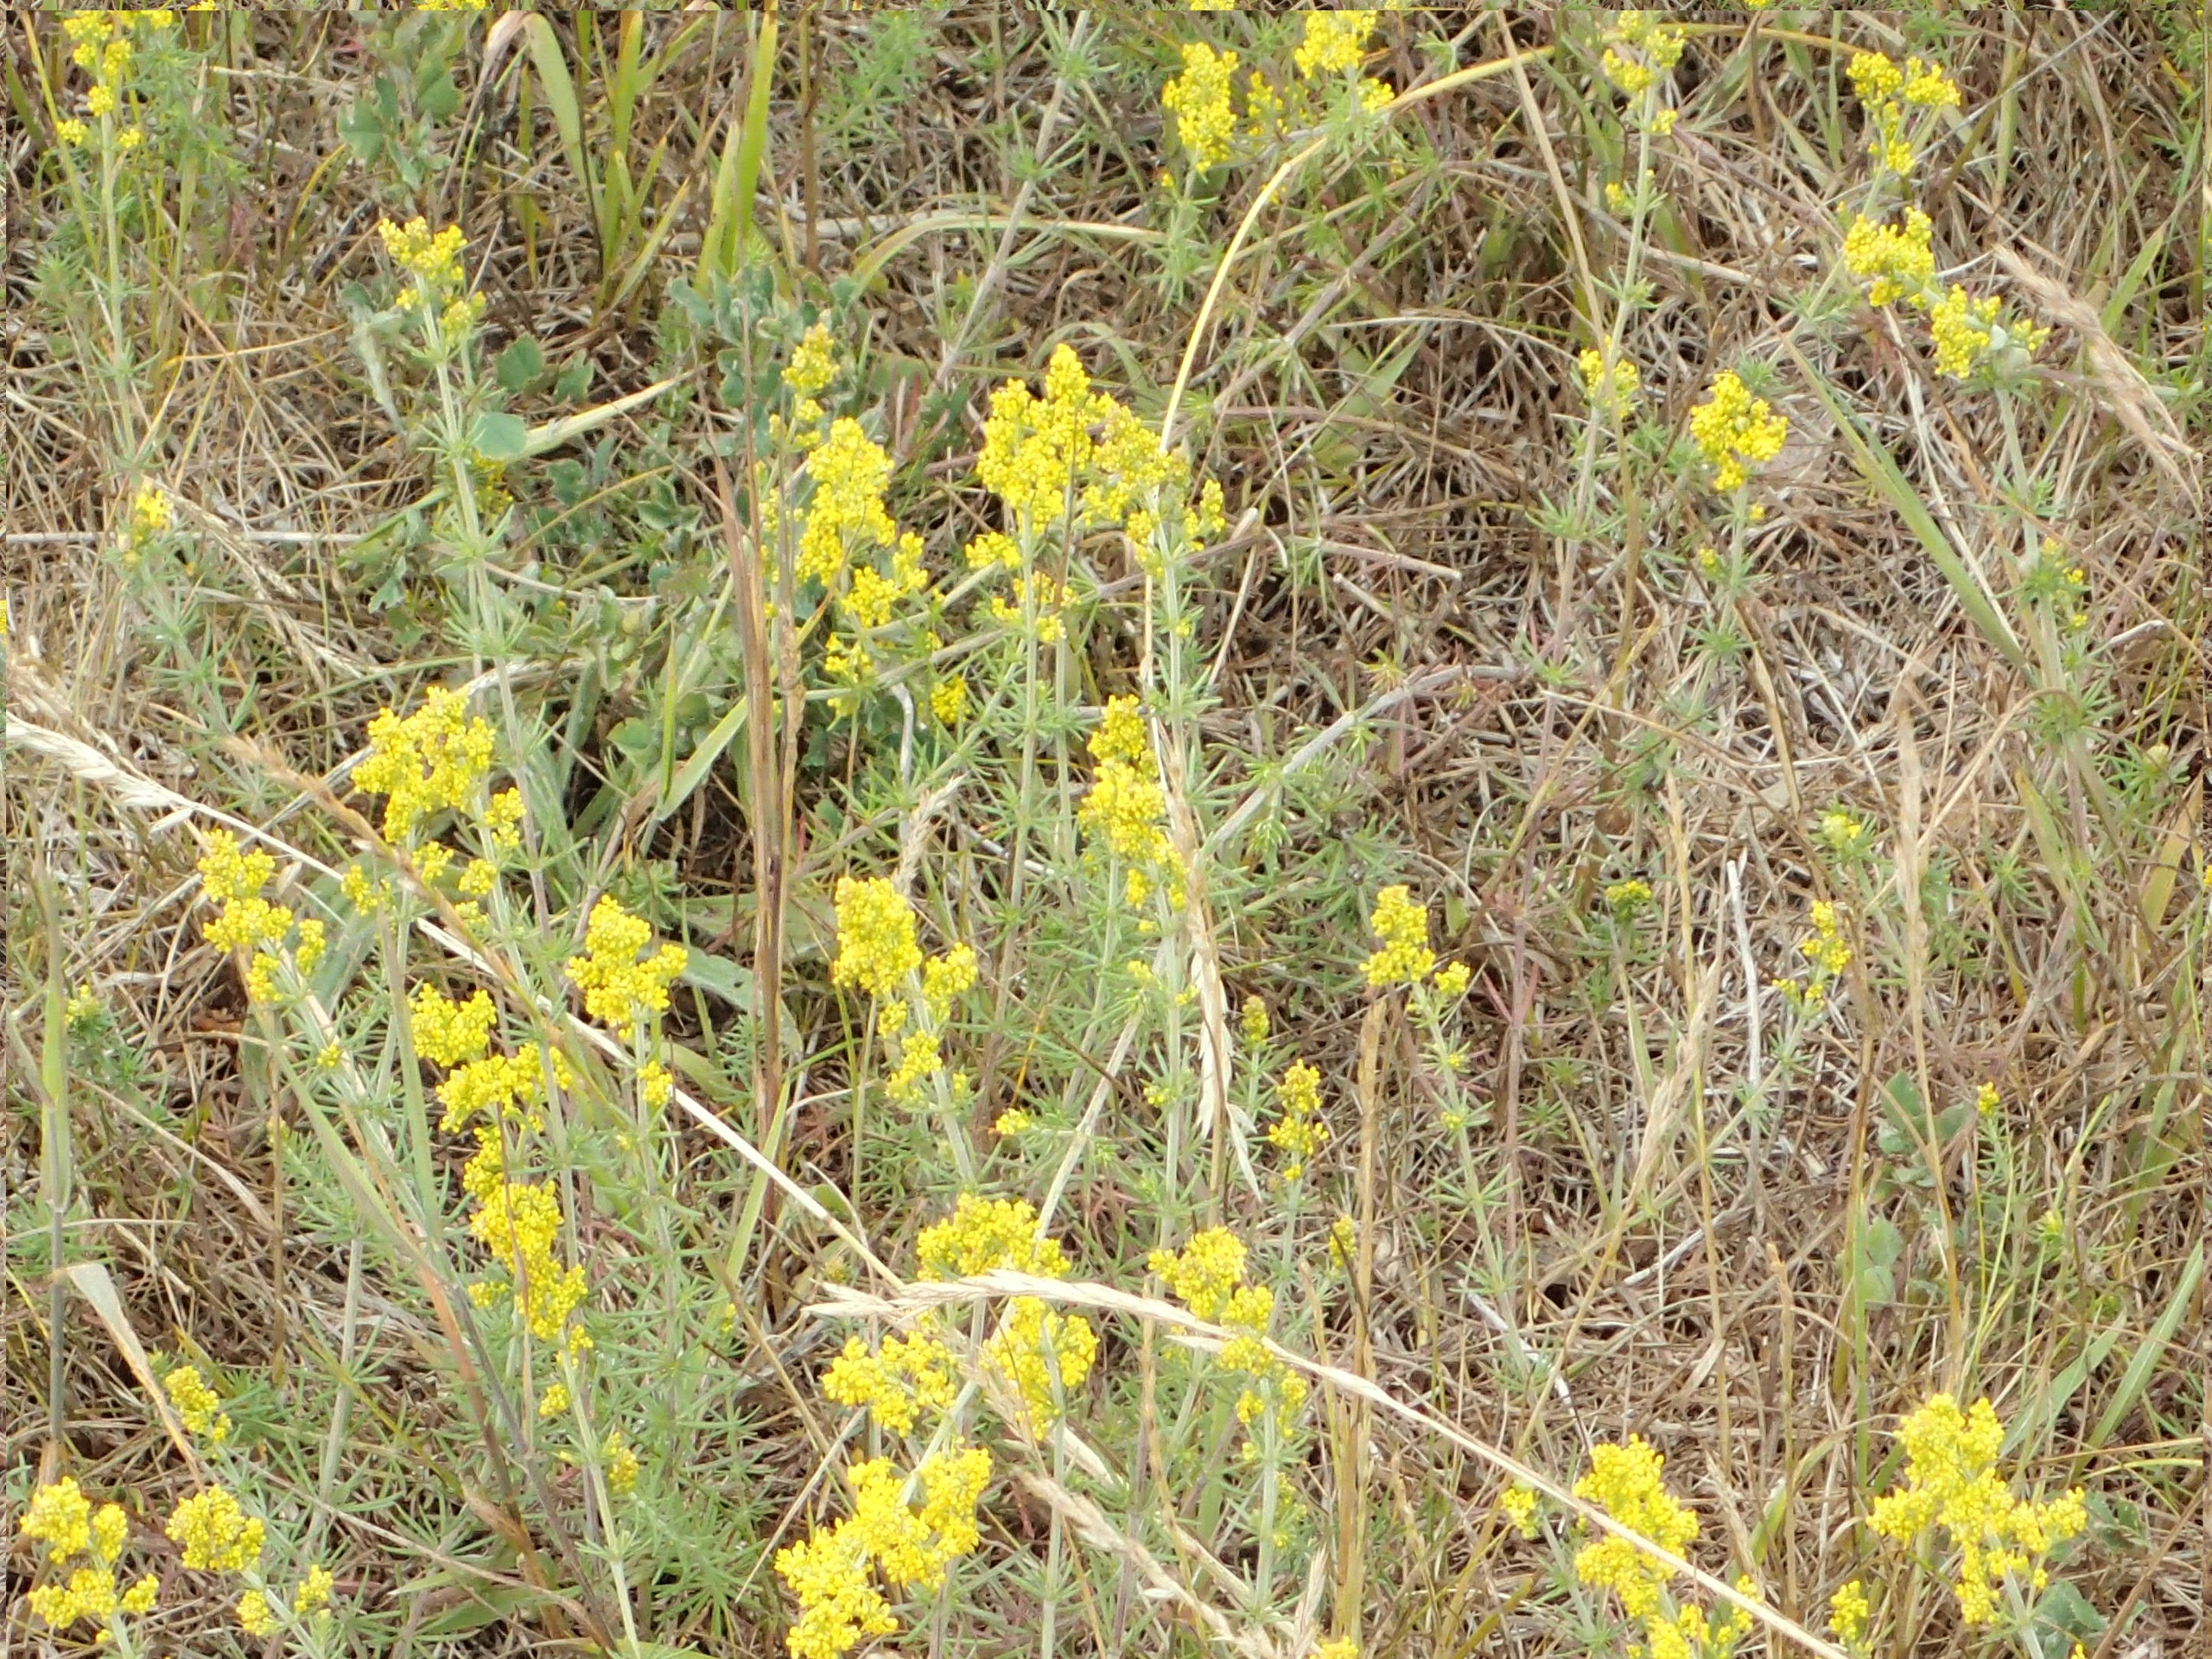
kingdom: Plantae
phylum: Tracheophyta
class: Magnoliopsida
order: Gentianales
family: Rubiaceae
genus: Galium
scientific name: Galium verum
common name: Gul snerre
